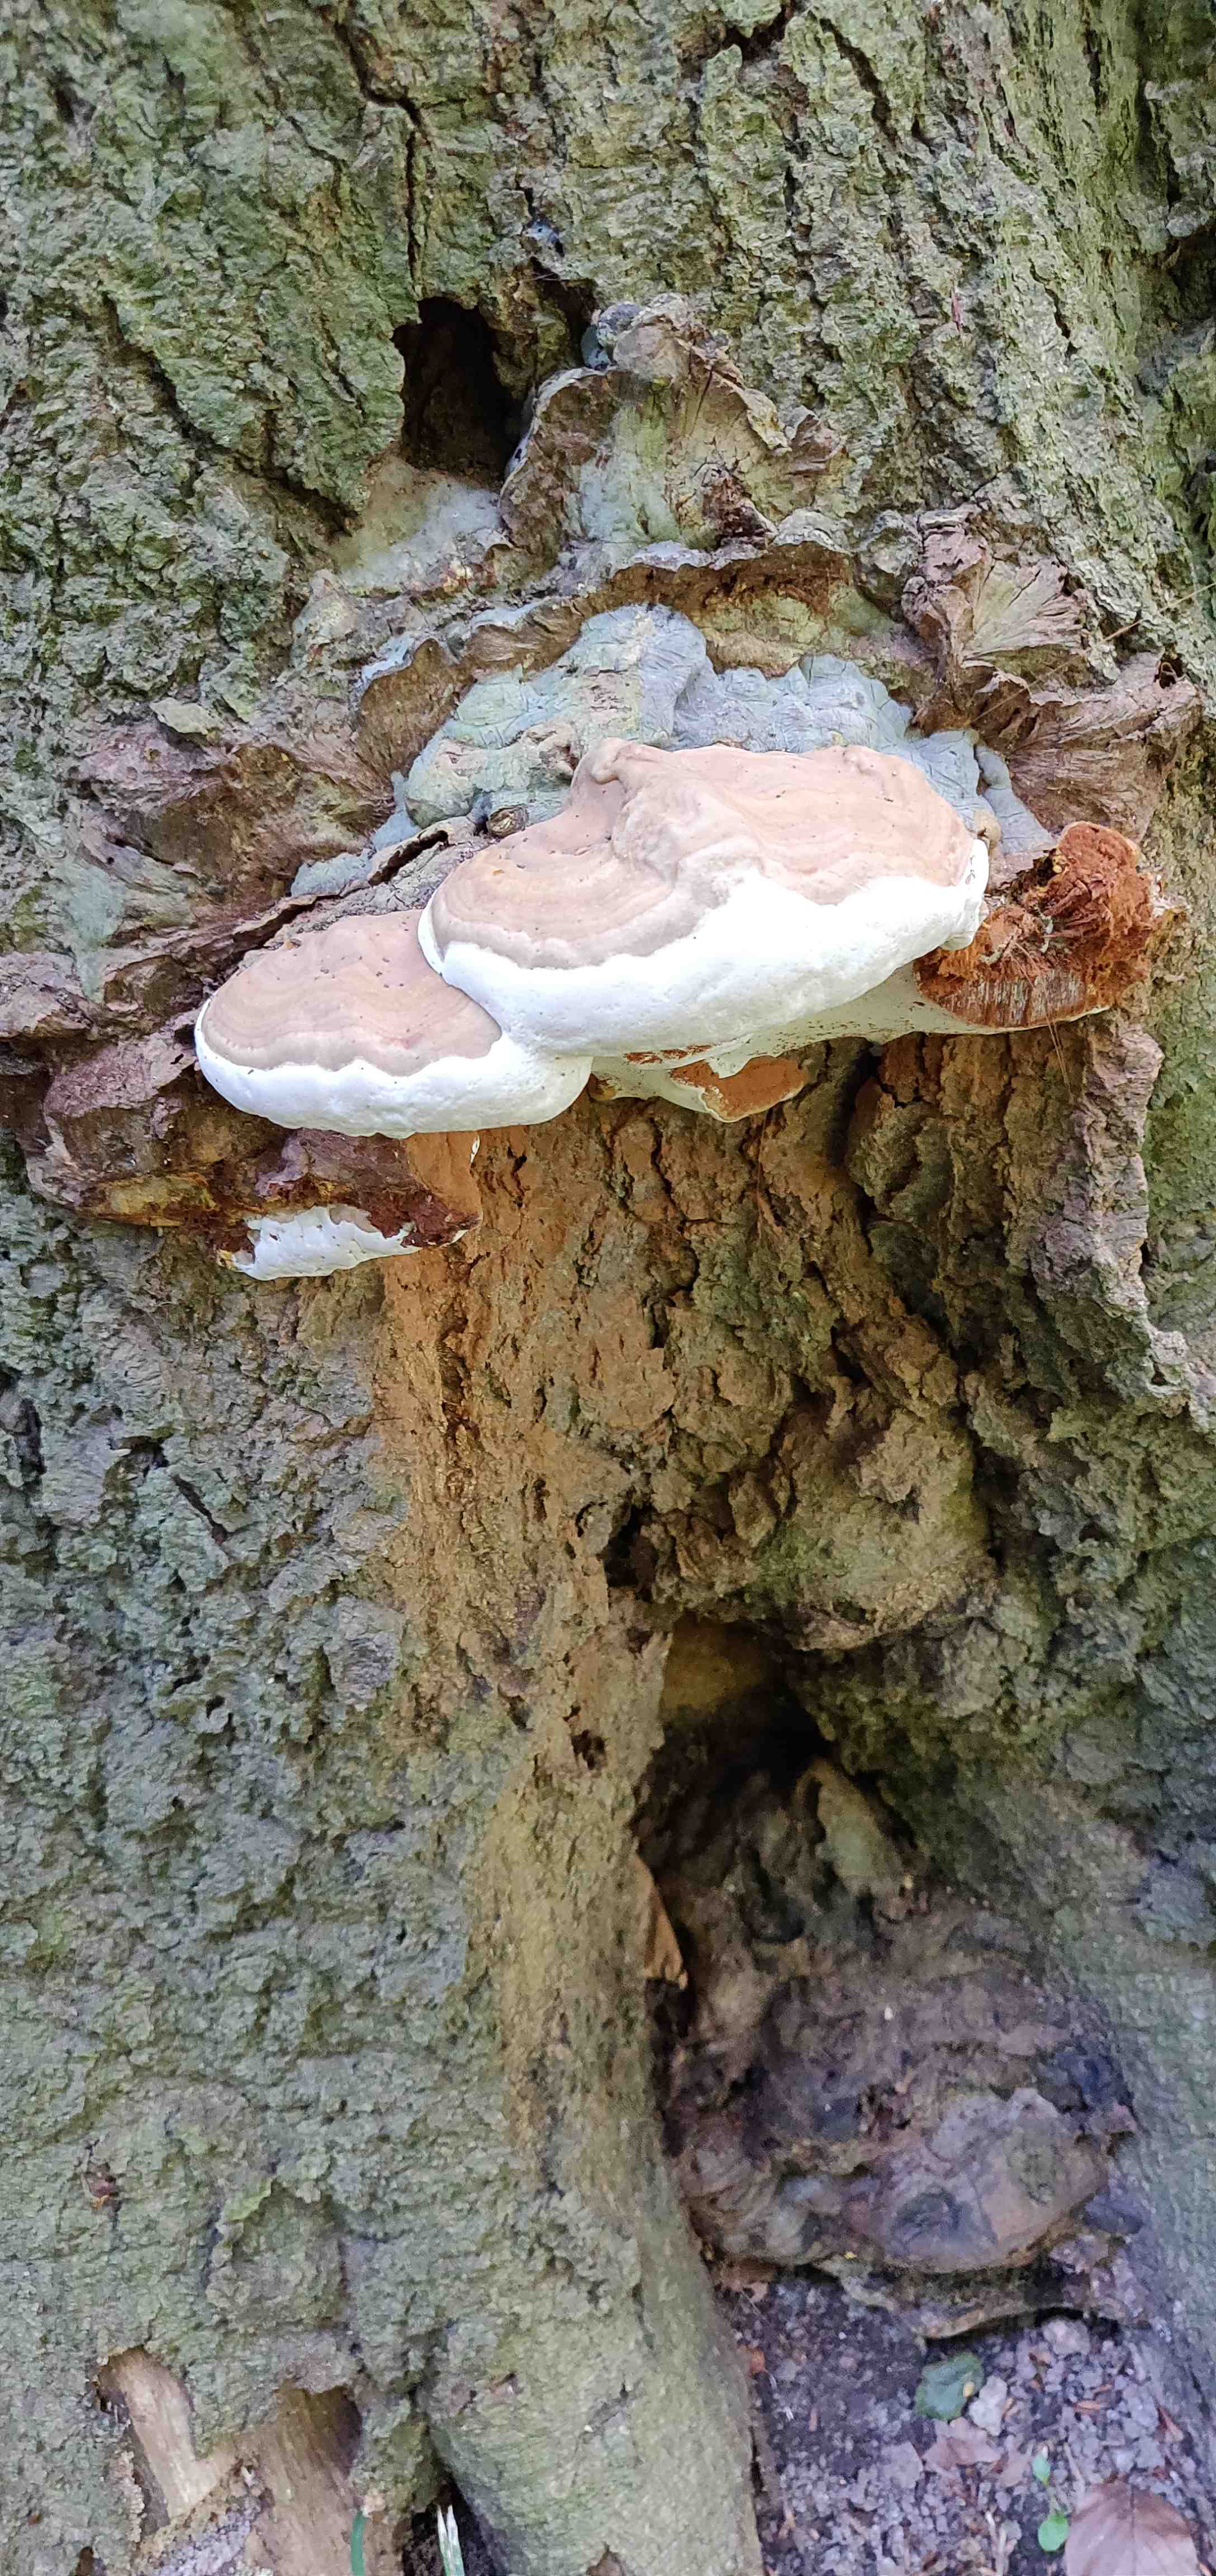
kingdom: Fungi
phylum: Basidiomycota
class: Agaricomycetes
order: Polyporales
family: Polyporaceae
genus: Ganoderma
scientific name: Ganoderma pfeifferi
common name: kobberrød lakporesvamp
